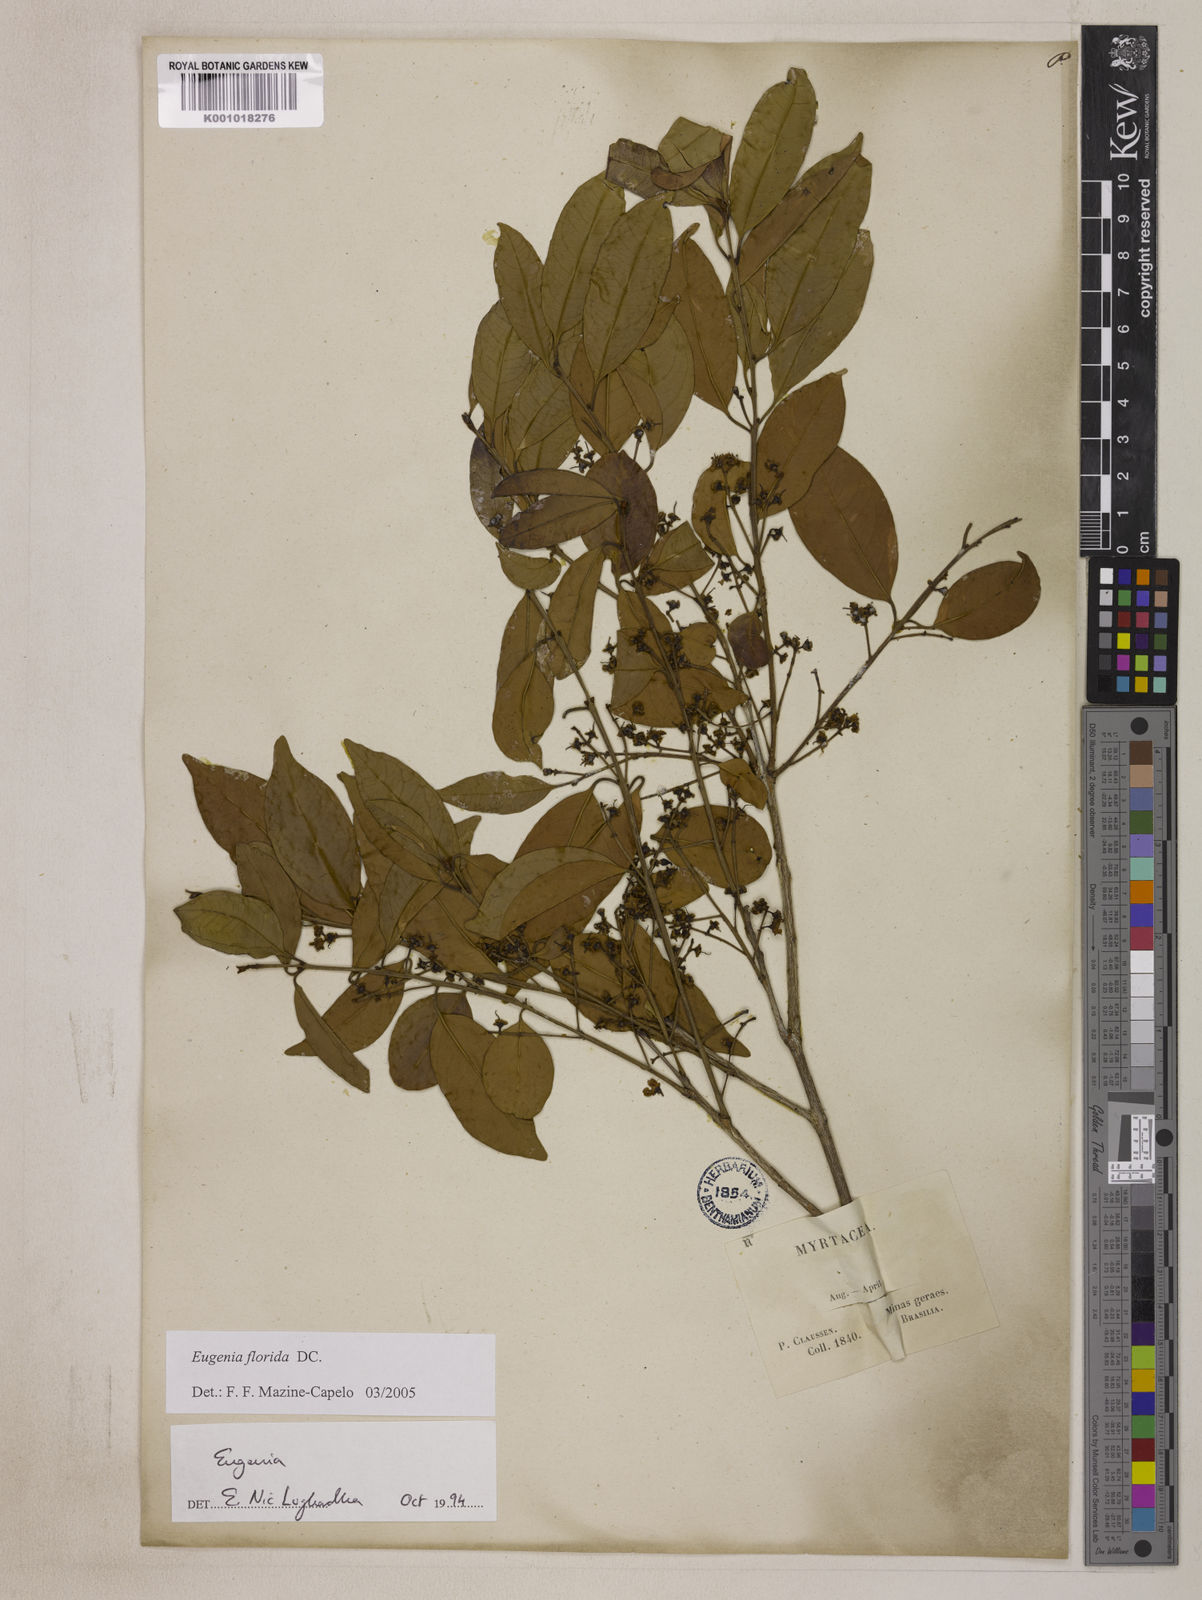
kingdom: Plantae
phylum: Tracheophyta
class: Magnoliopsida
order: Myrtales
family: Myrtaceae
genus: Eugenia
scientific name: Eugenia florida
